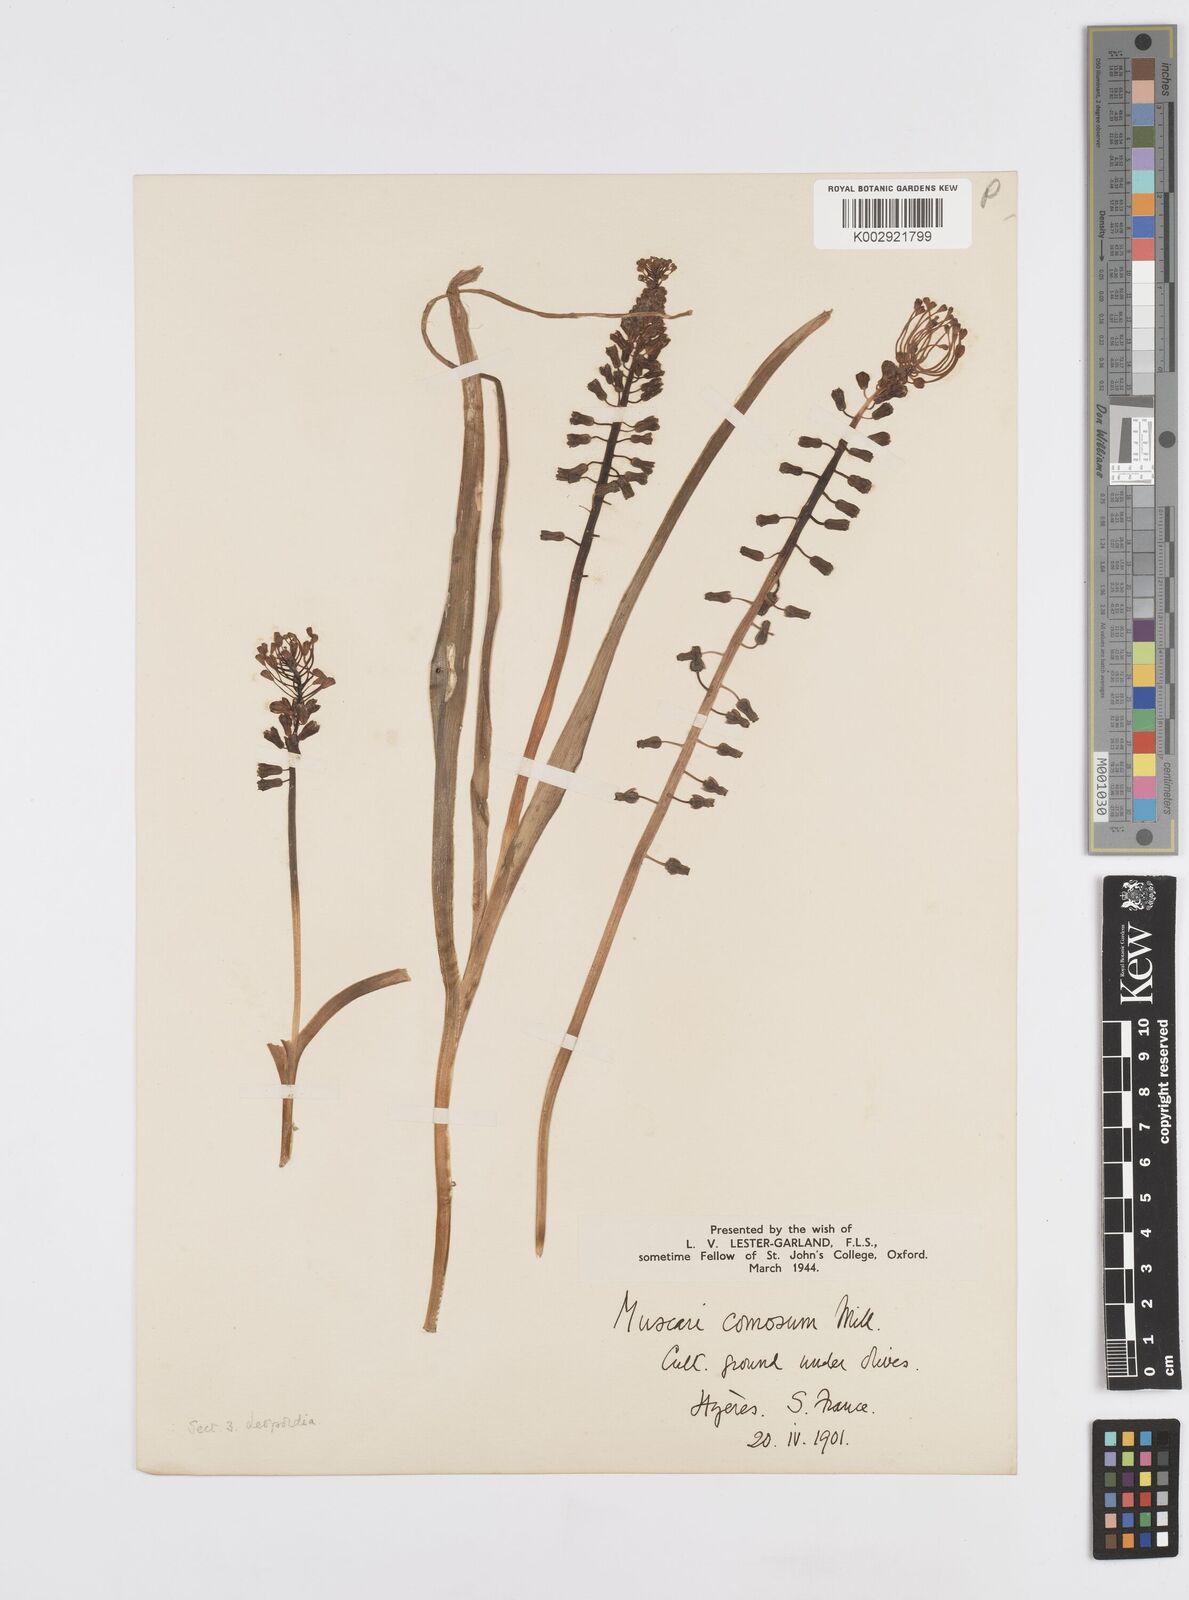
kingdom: Plantae
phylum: Tracheophyta
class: Liliopsida
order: Asparagales
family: Asparagaceae
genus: Muscari
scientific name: Muscari comosum
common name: Tassel hyacinth
